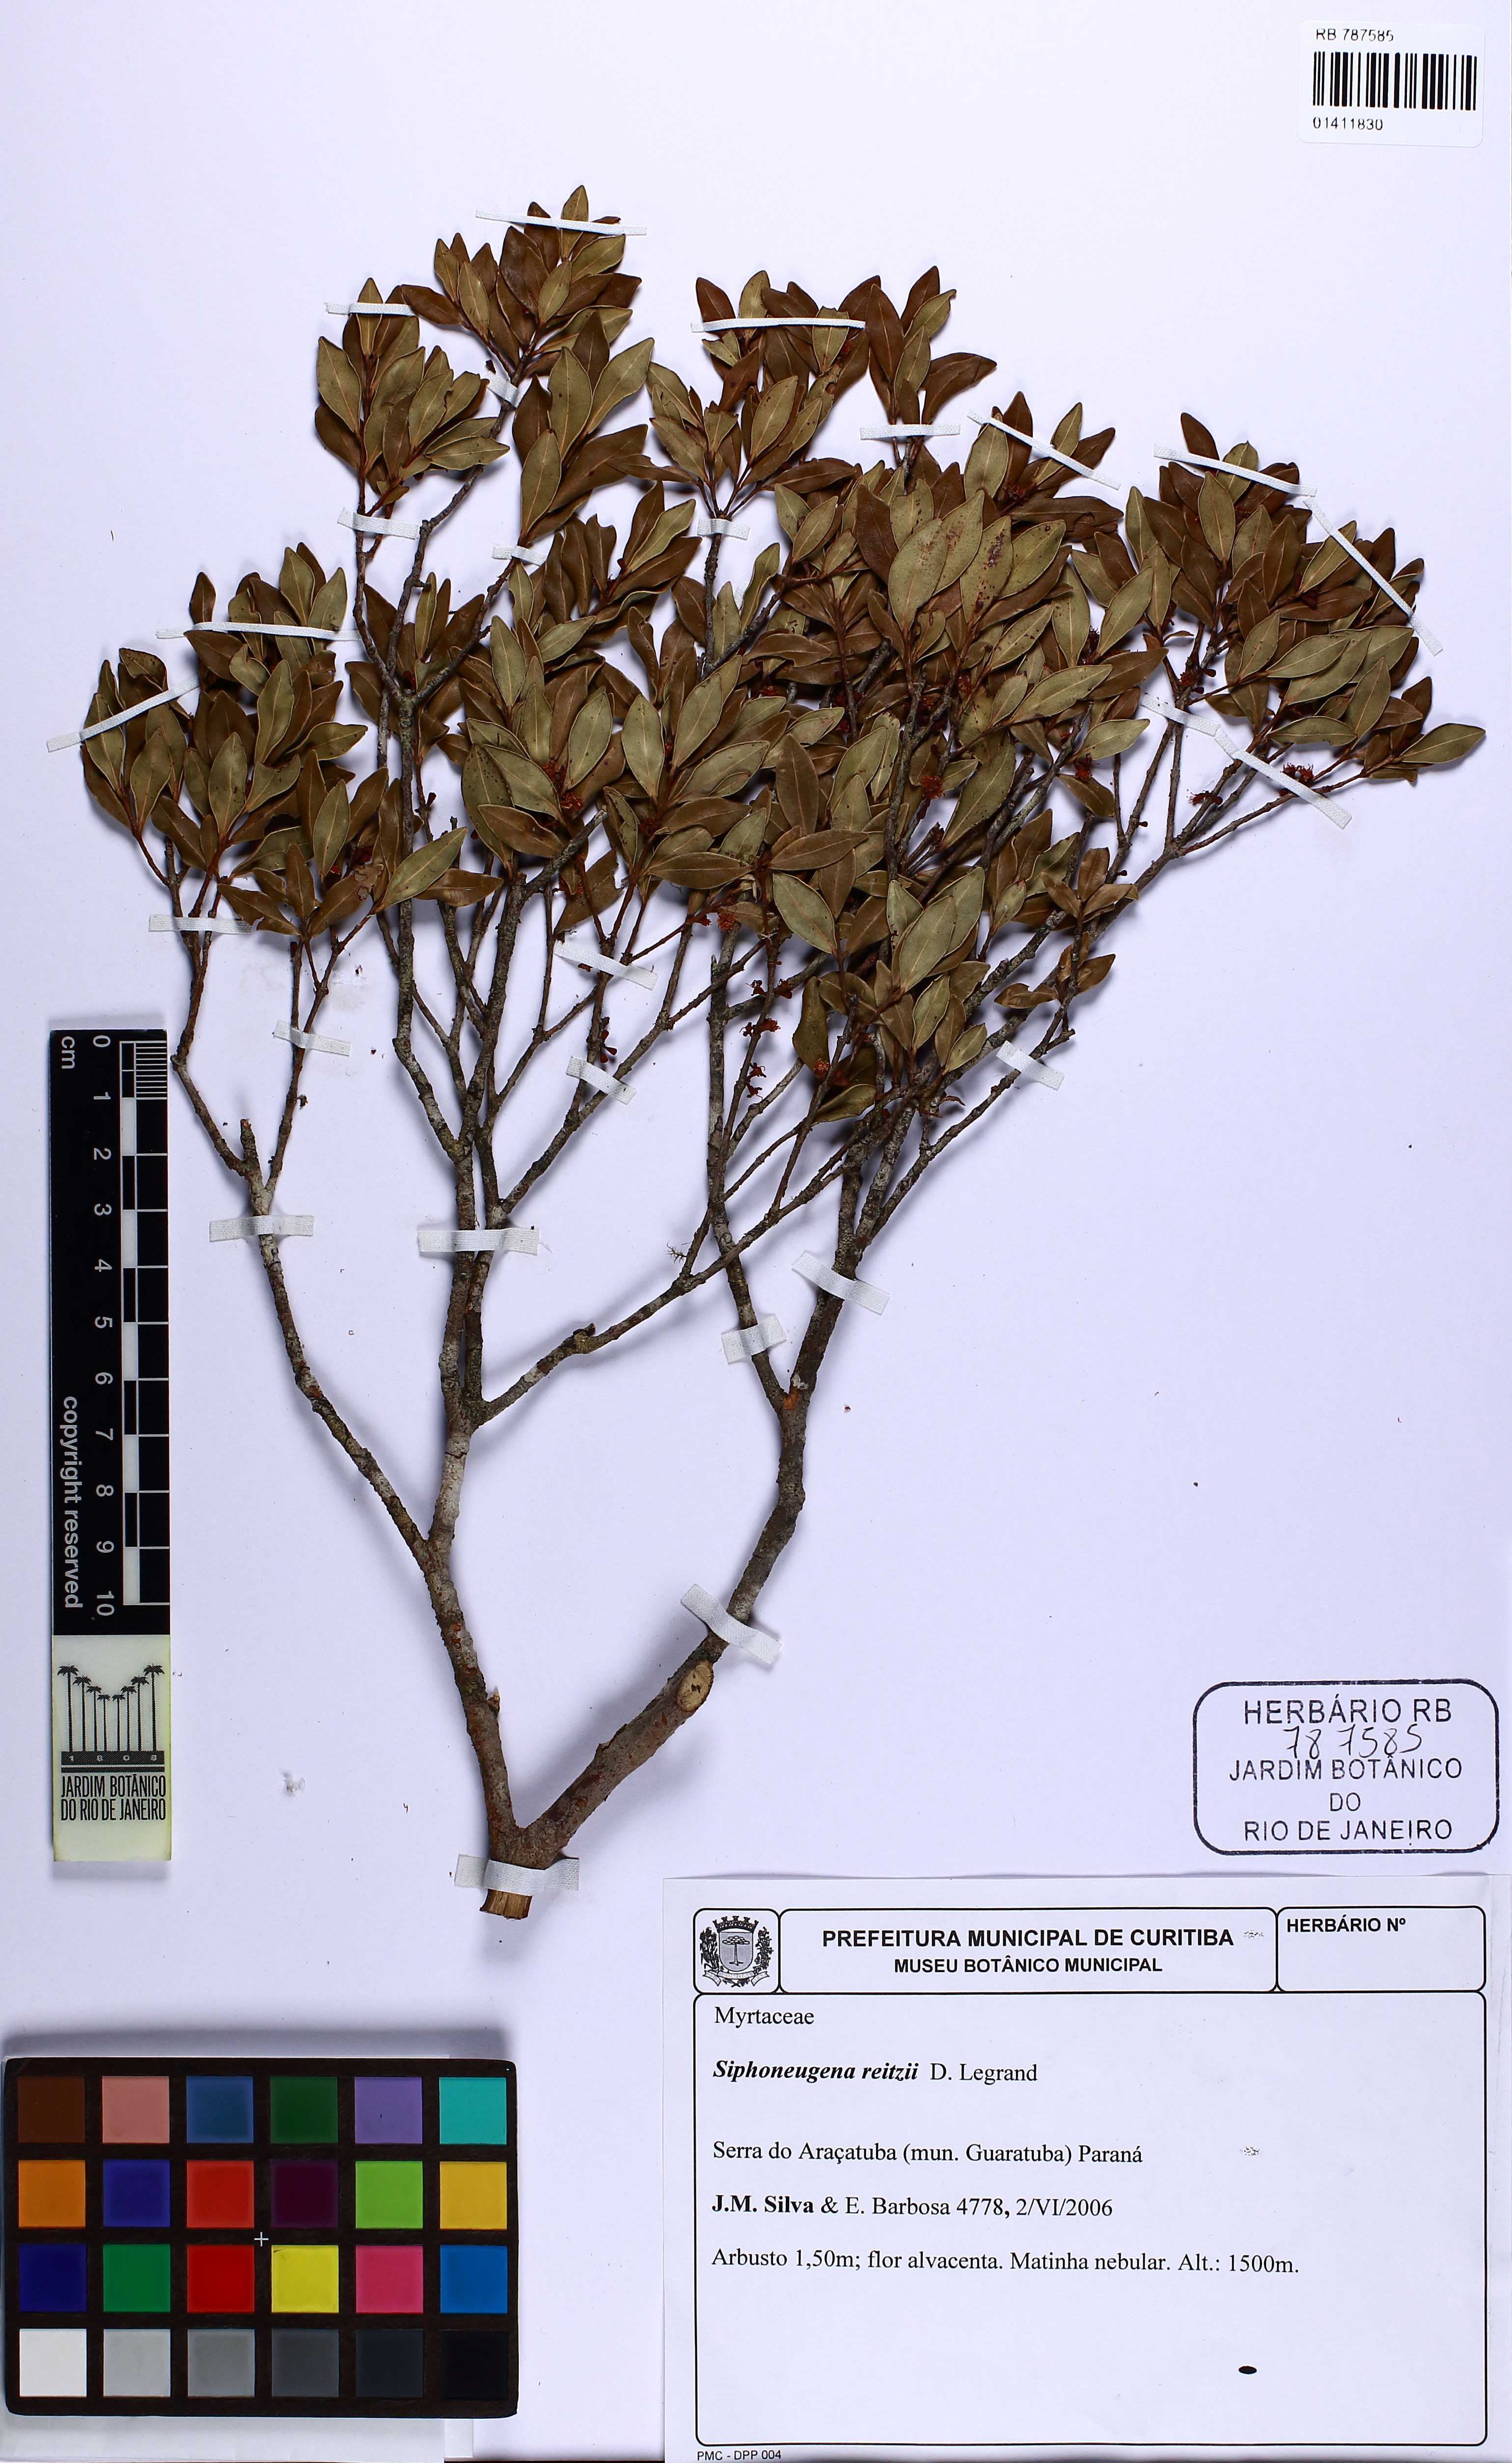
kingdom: Plantae
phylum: Tracheophyta
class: Magnoliopsida
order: Myrtales
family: Myrtaceae
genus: Siphoneugena
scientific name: Siphoneugena reitzii
